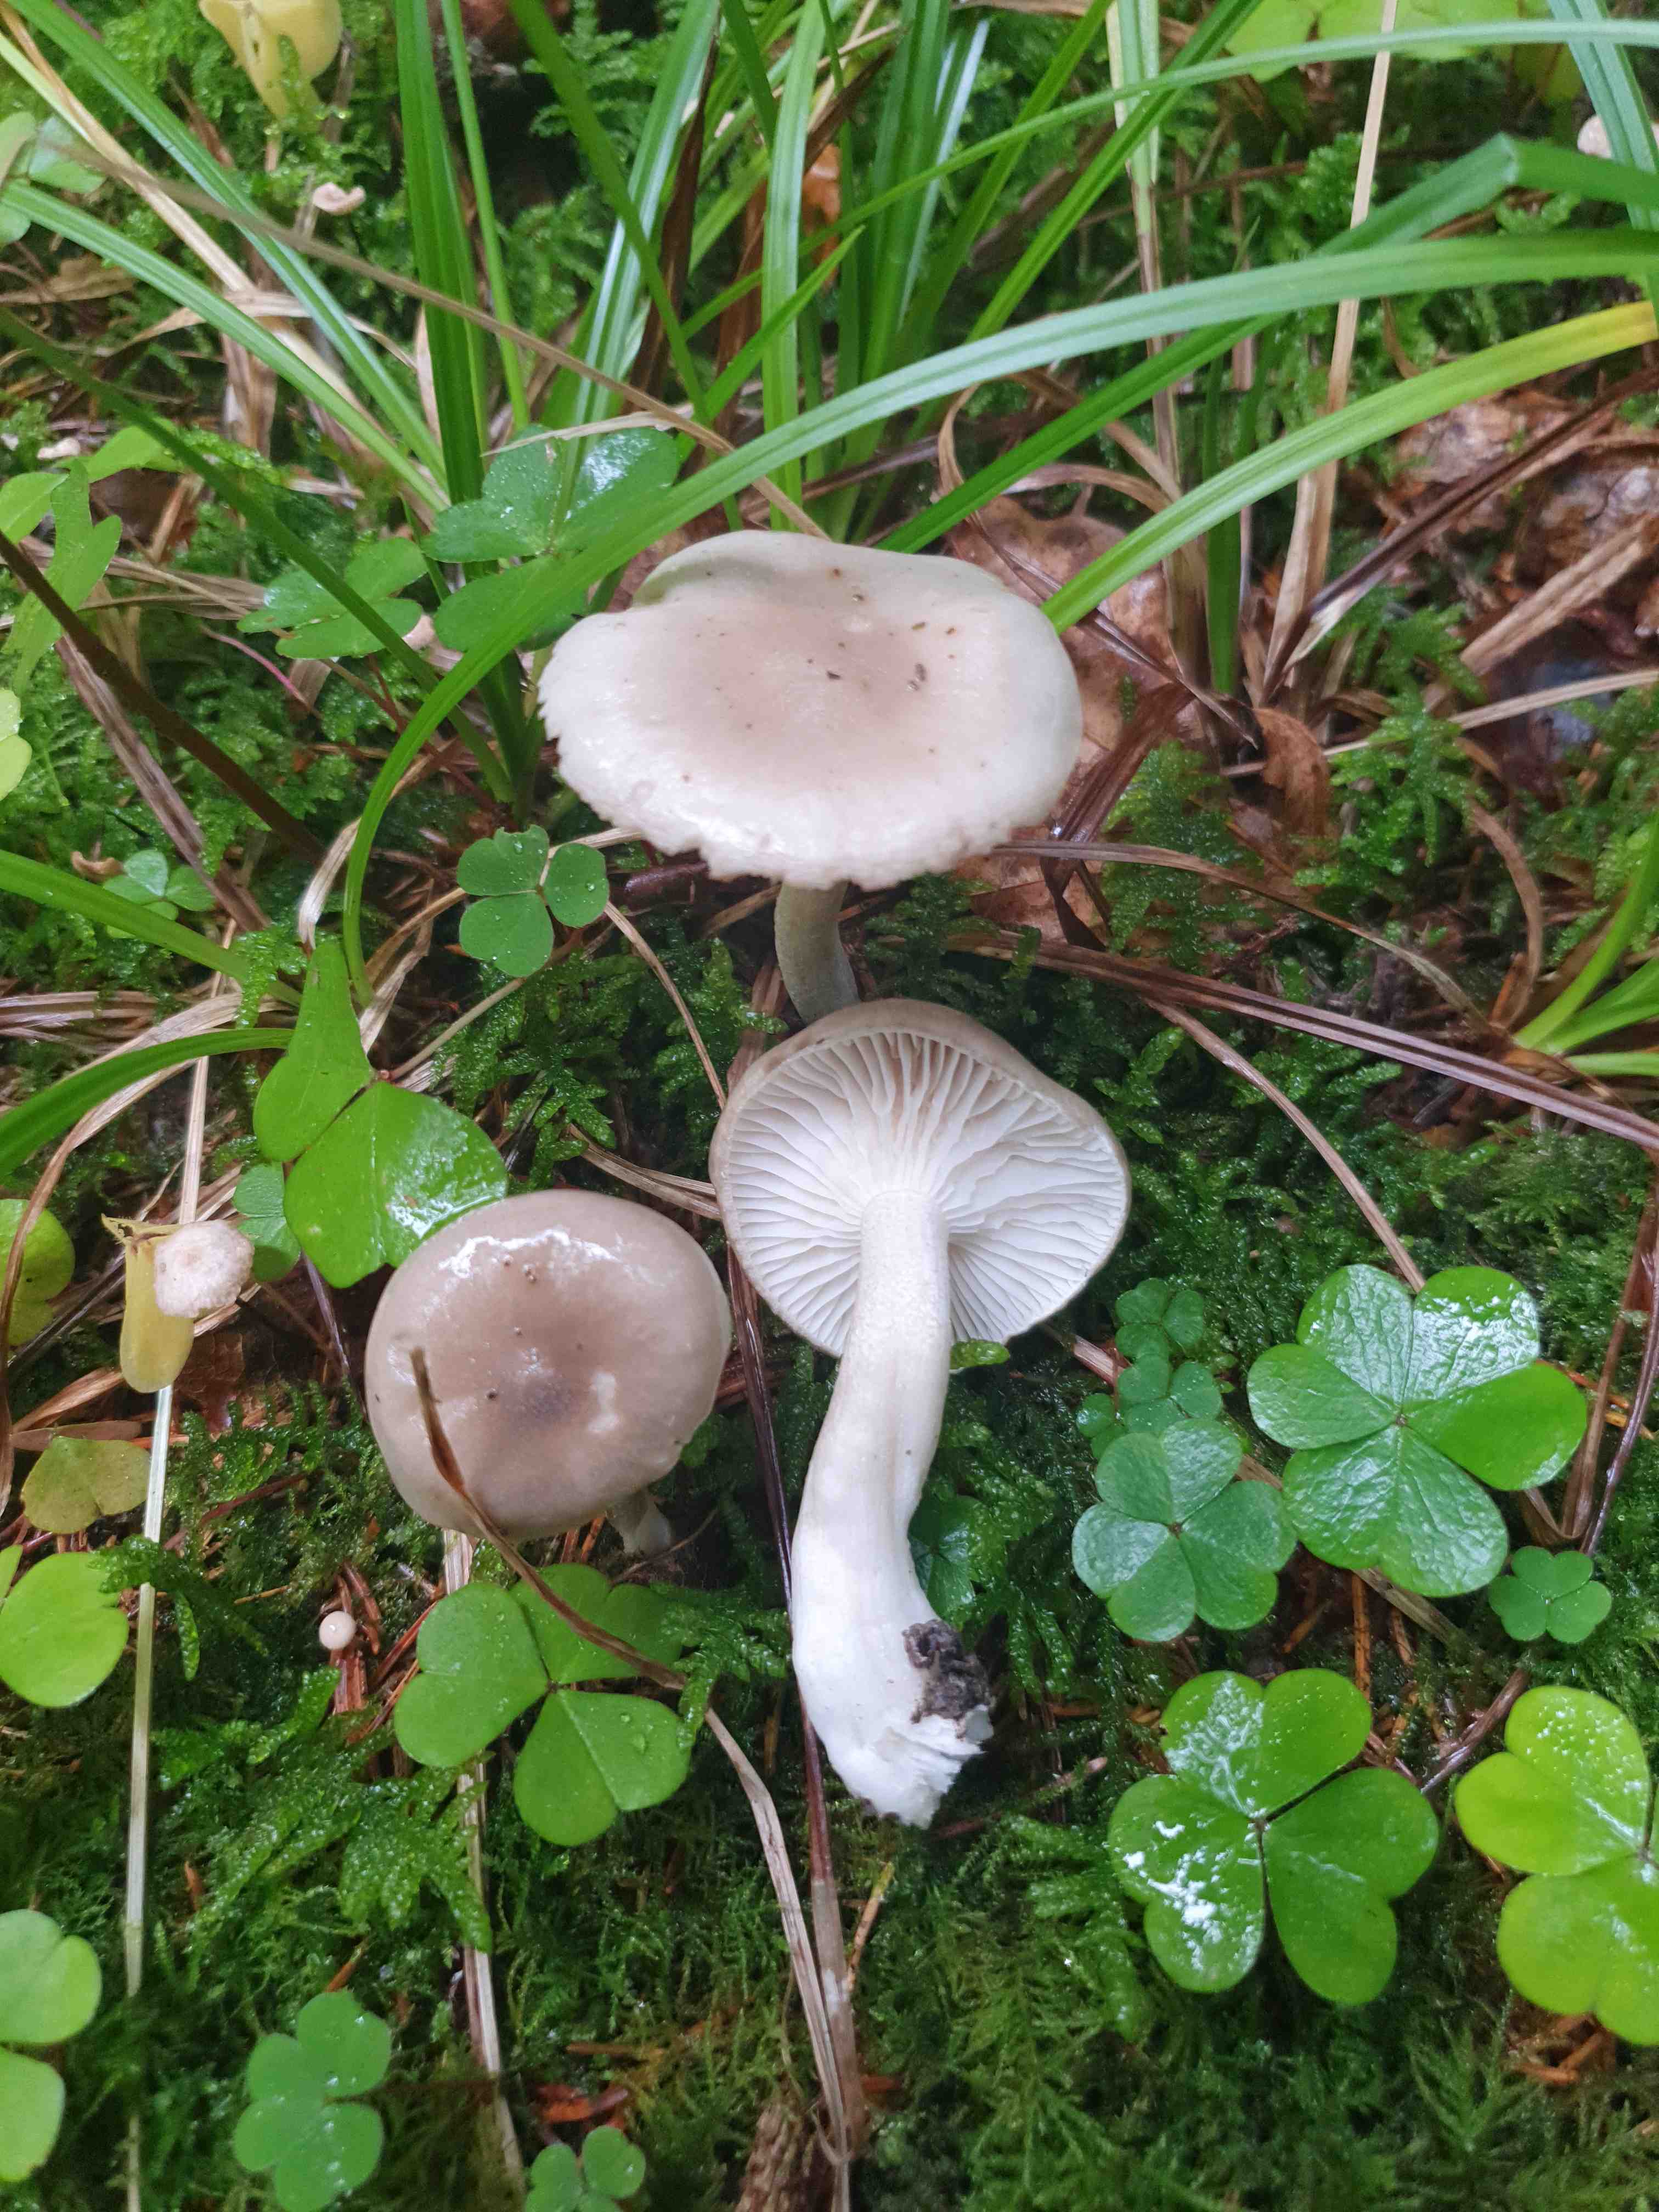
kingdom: Fungi
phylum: Basidiomycota
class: Agaricomycetes
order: Agaricales
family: Hygrophoraceae
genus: Hygrophorus
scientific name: Hygrophorus agathosmus
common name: vellugtende sneglehat
